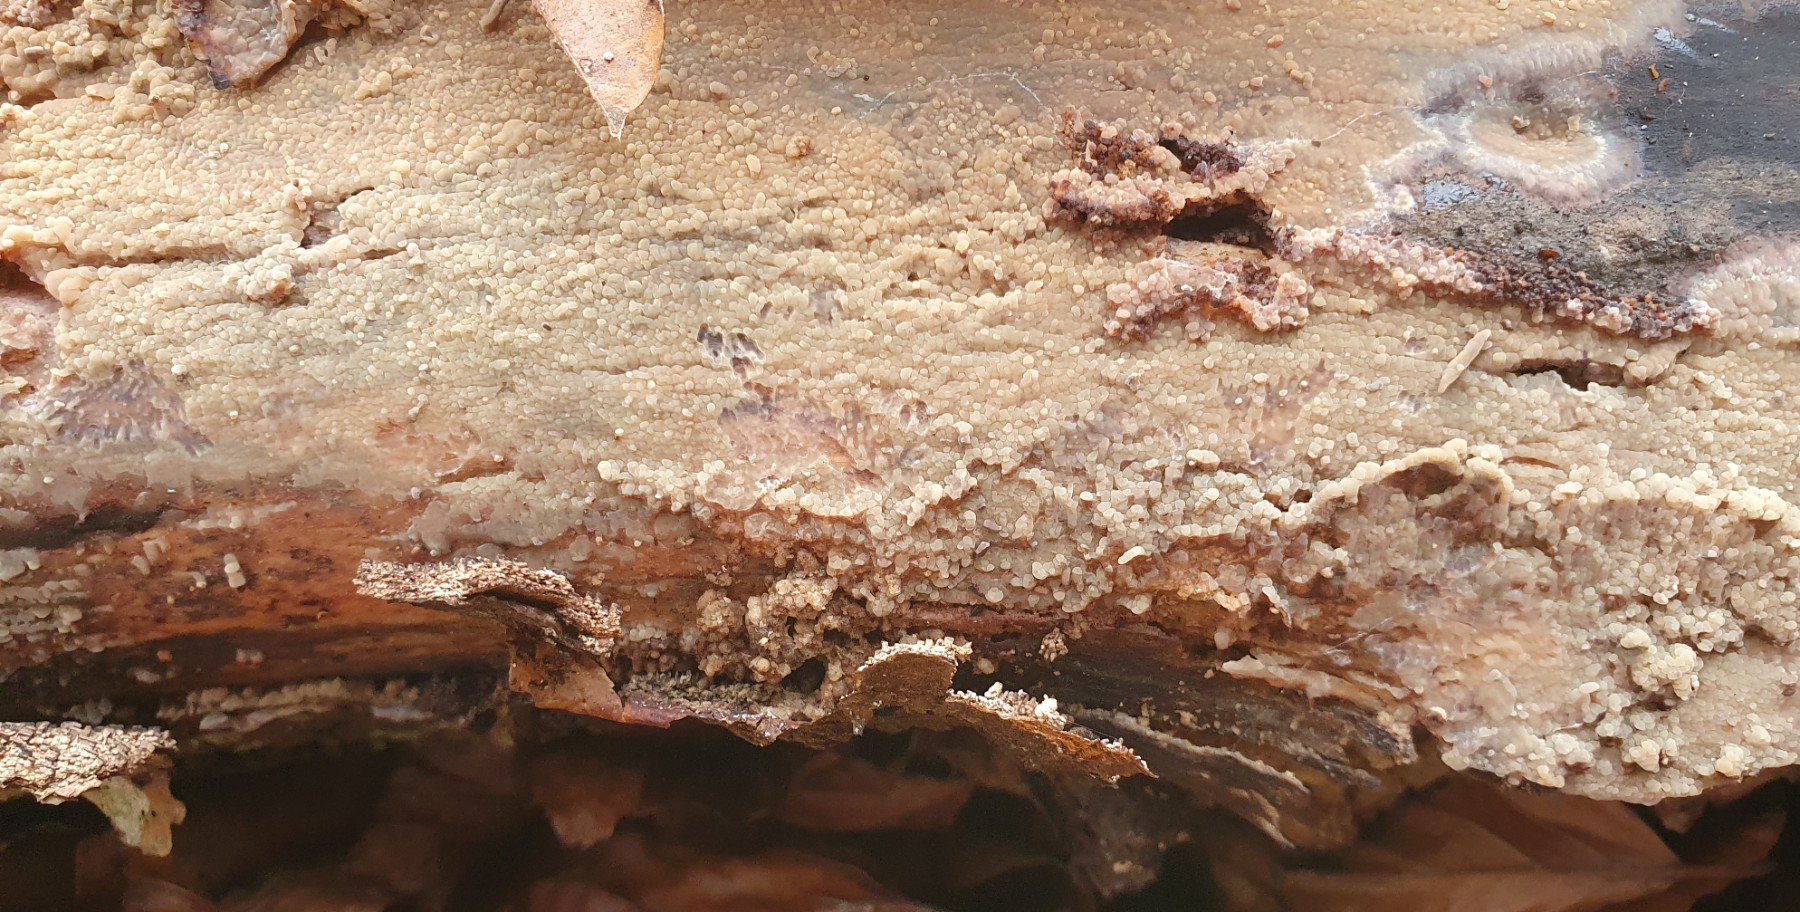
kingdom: Fungi
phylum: Basidiomycota
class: Agaricomycetes
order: Polyporales
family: Meruliaceae
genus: Phlebia
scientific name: Phlebia
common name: åresvamp
